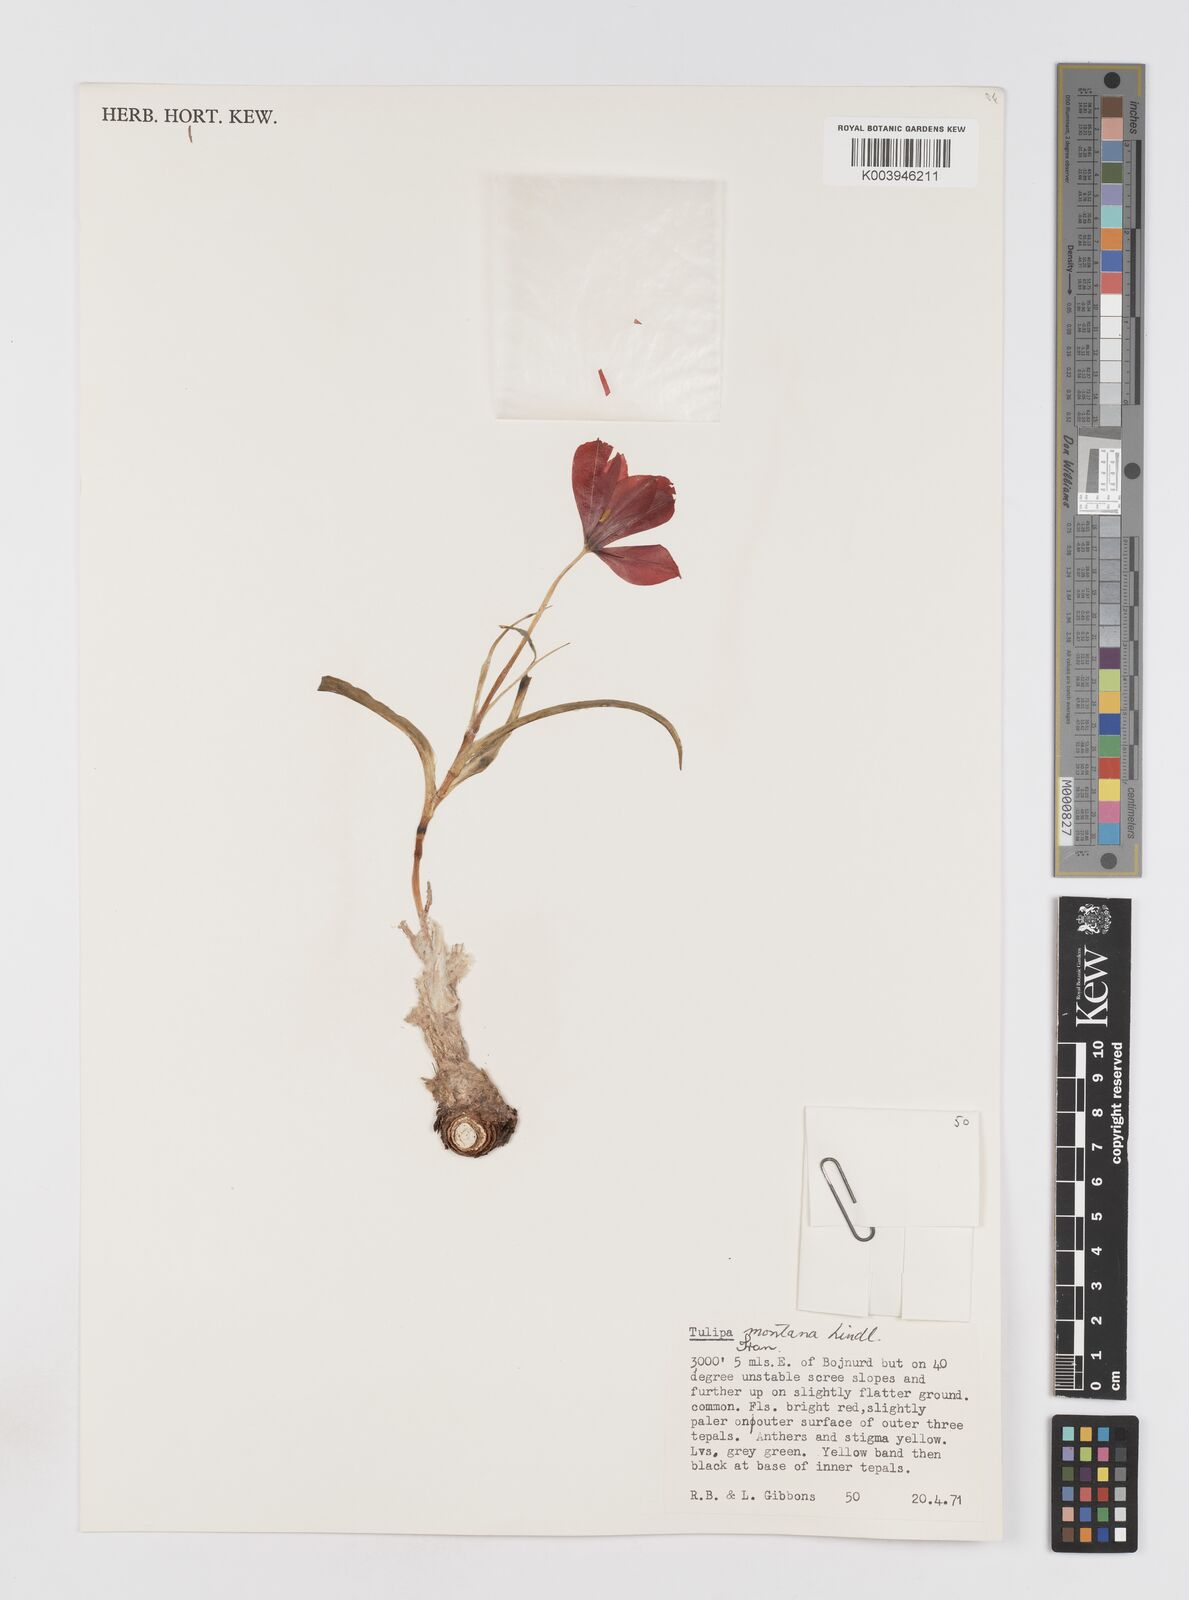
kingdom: Plantae
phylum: Tracheophyta
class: Liliopsida
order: Liliales
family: Liliaceae
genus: Tulipa
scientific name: Tulipa montana
